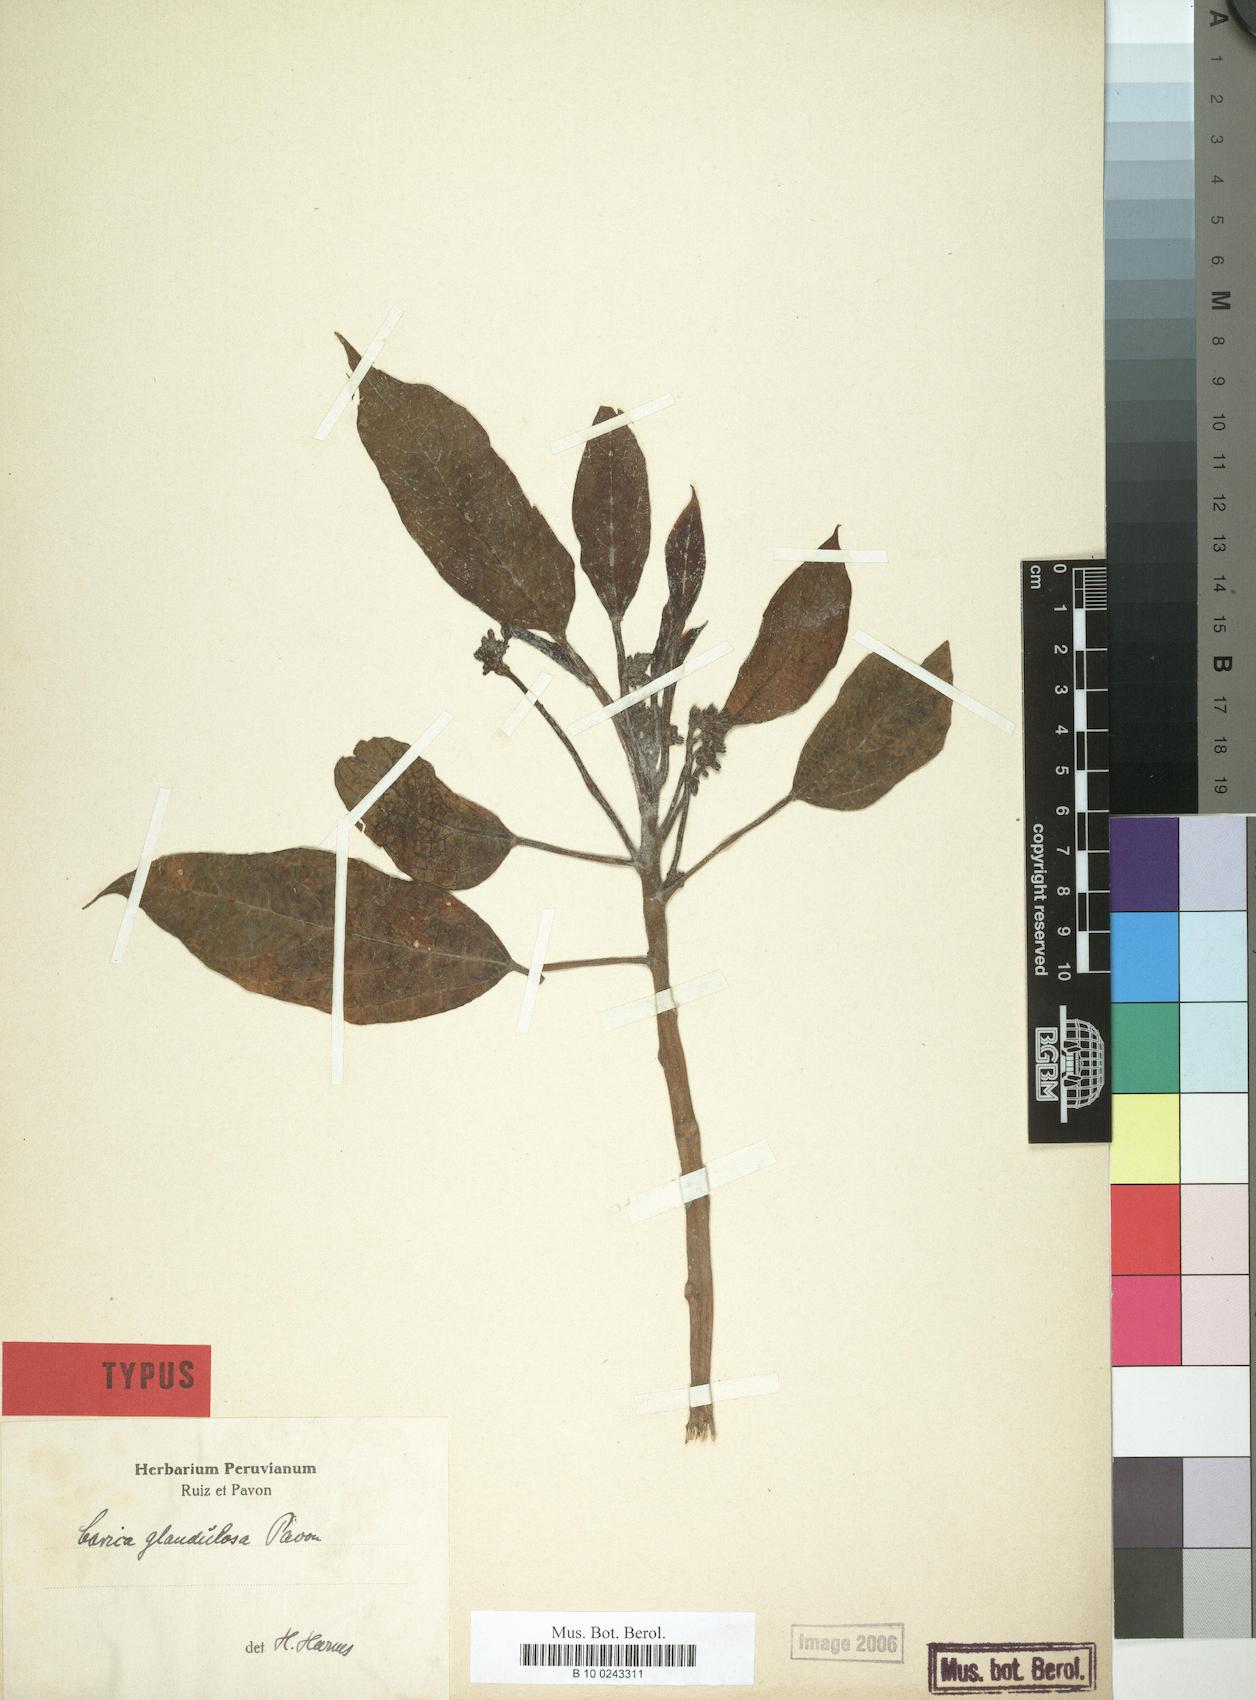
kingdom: Plantae
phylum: Tracheophyta
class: Magnoliopsida
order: Brassicales
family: Caricaceae
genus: Vasconcellea
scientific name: Vasconcellea glandulosa
